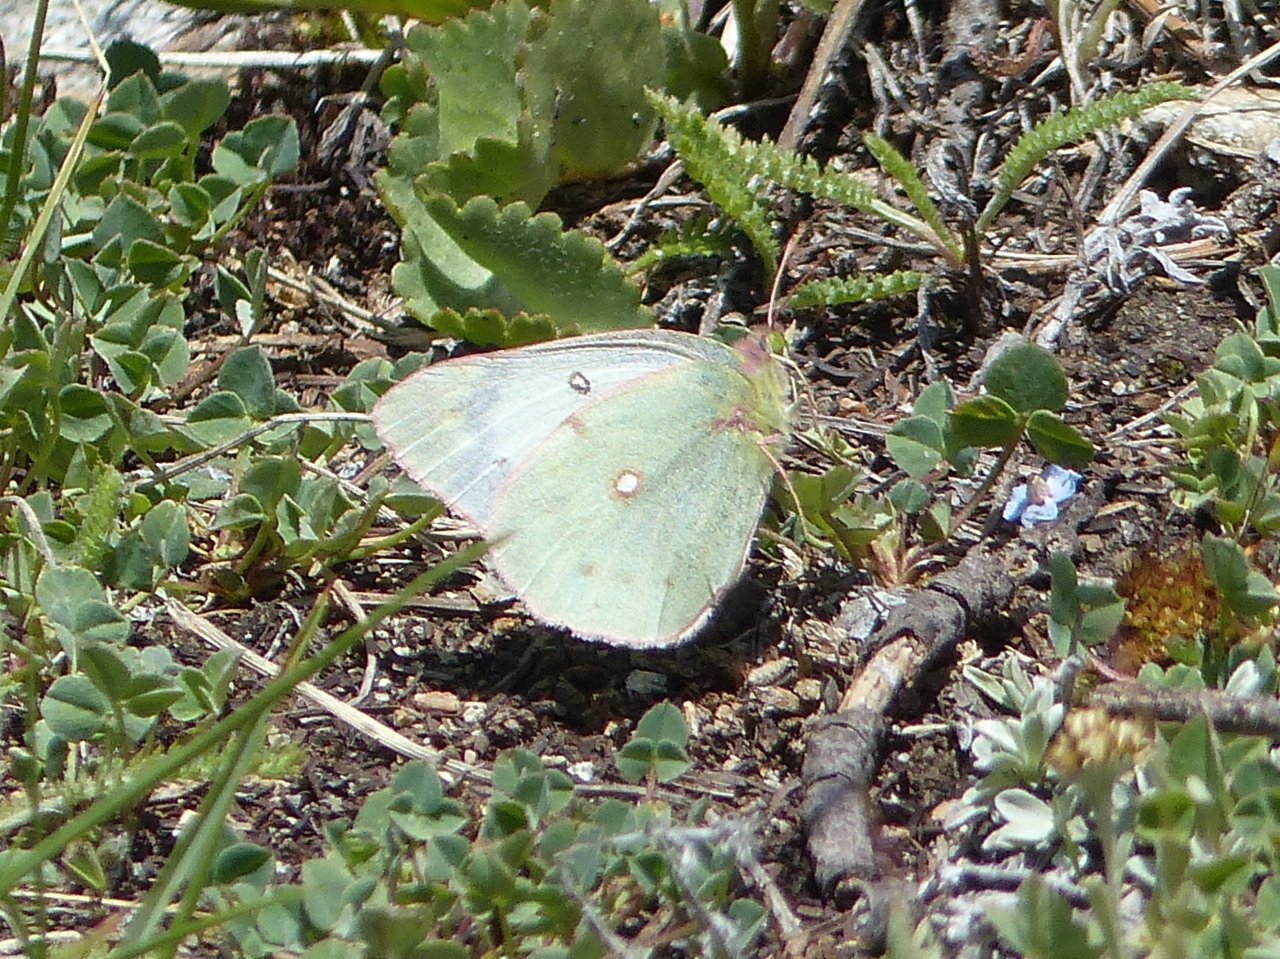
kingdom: Animalia
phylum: Arthropoda
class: Insecta
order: Lepidoptera
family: Pieridae
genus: Colias
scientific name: Colias philodice
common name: Clouded Sulphur
